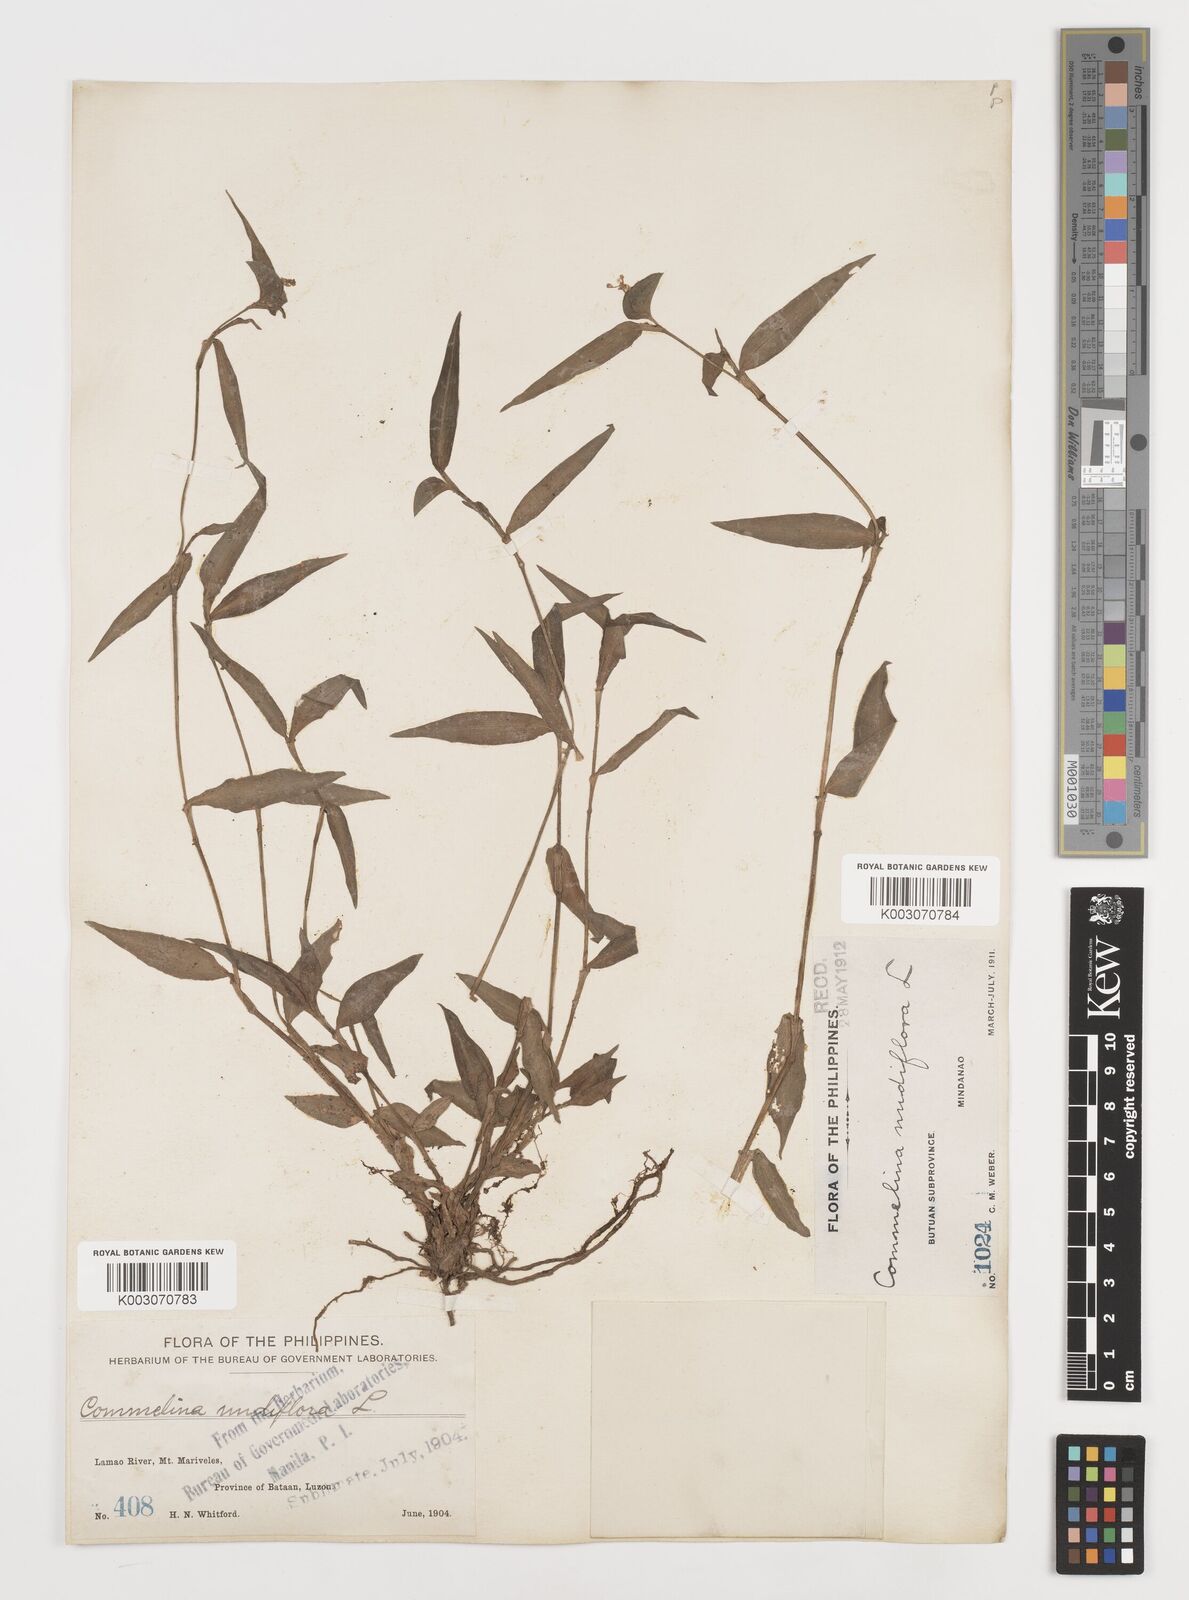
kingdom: Plantae
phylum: Tracheophyta
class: Liliopsida
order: Commelinales
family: Commelinaceae
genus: Murdannia
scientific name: Murdannia nudiflora
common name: Nakedstem dewflower
